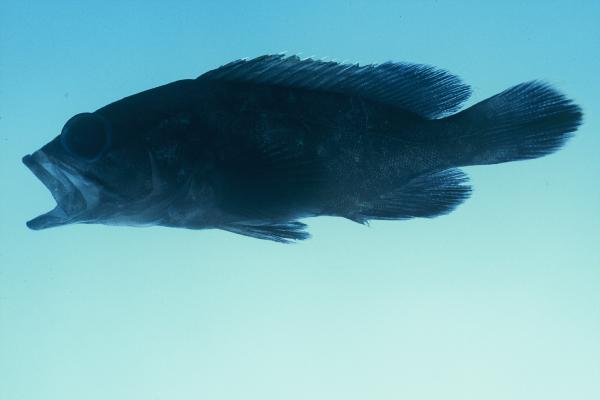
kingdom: Animalia
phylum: Chordata
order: Perciformes
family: Serranidae
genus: Epinephelus
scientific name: Epinephelus
